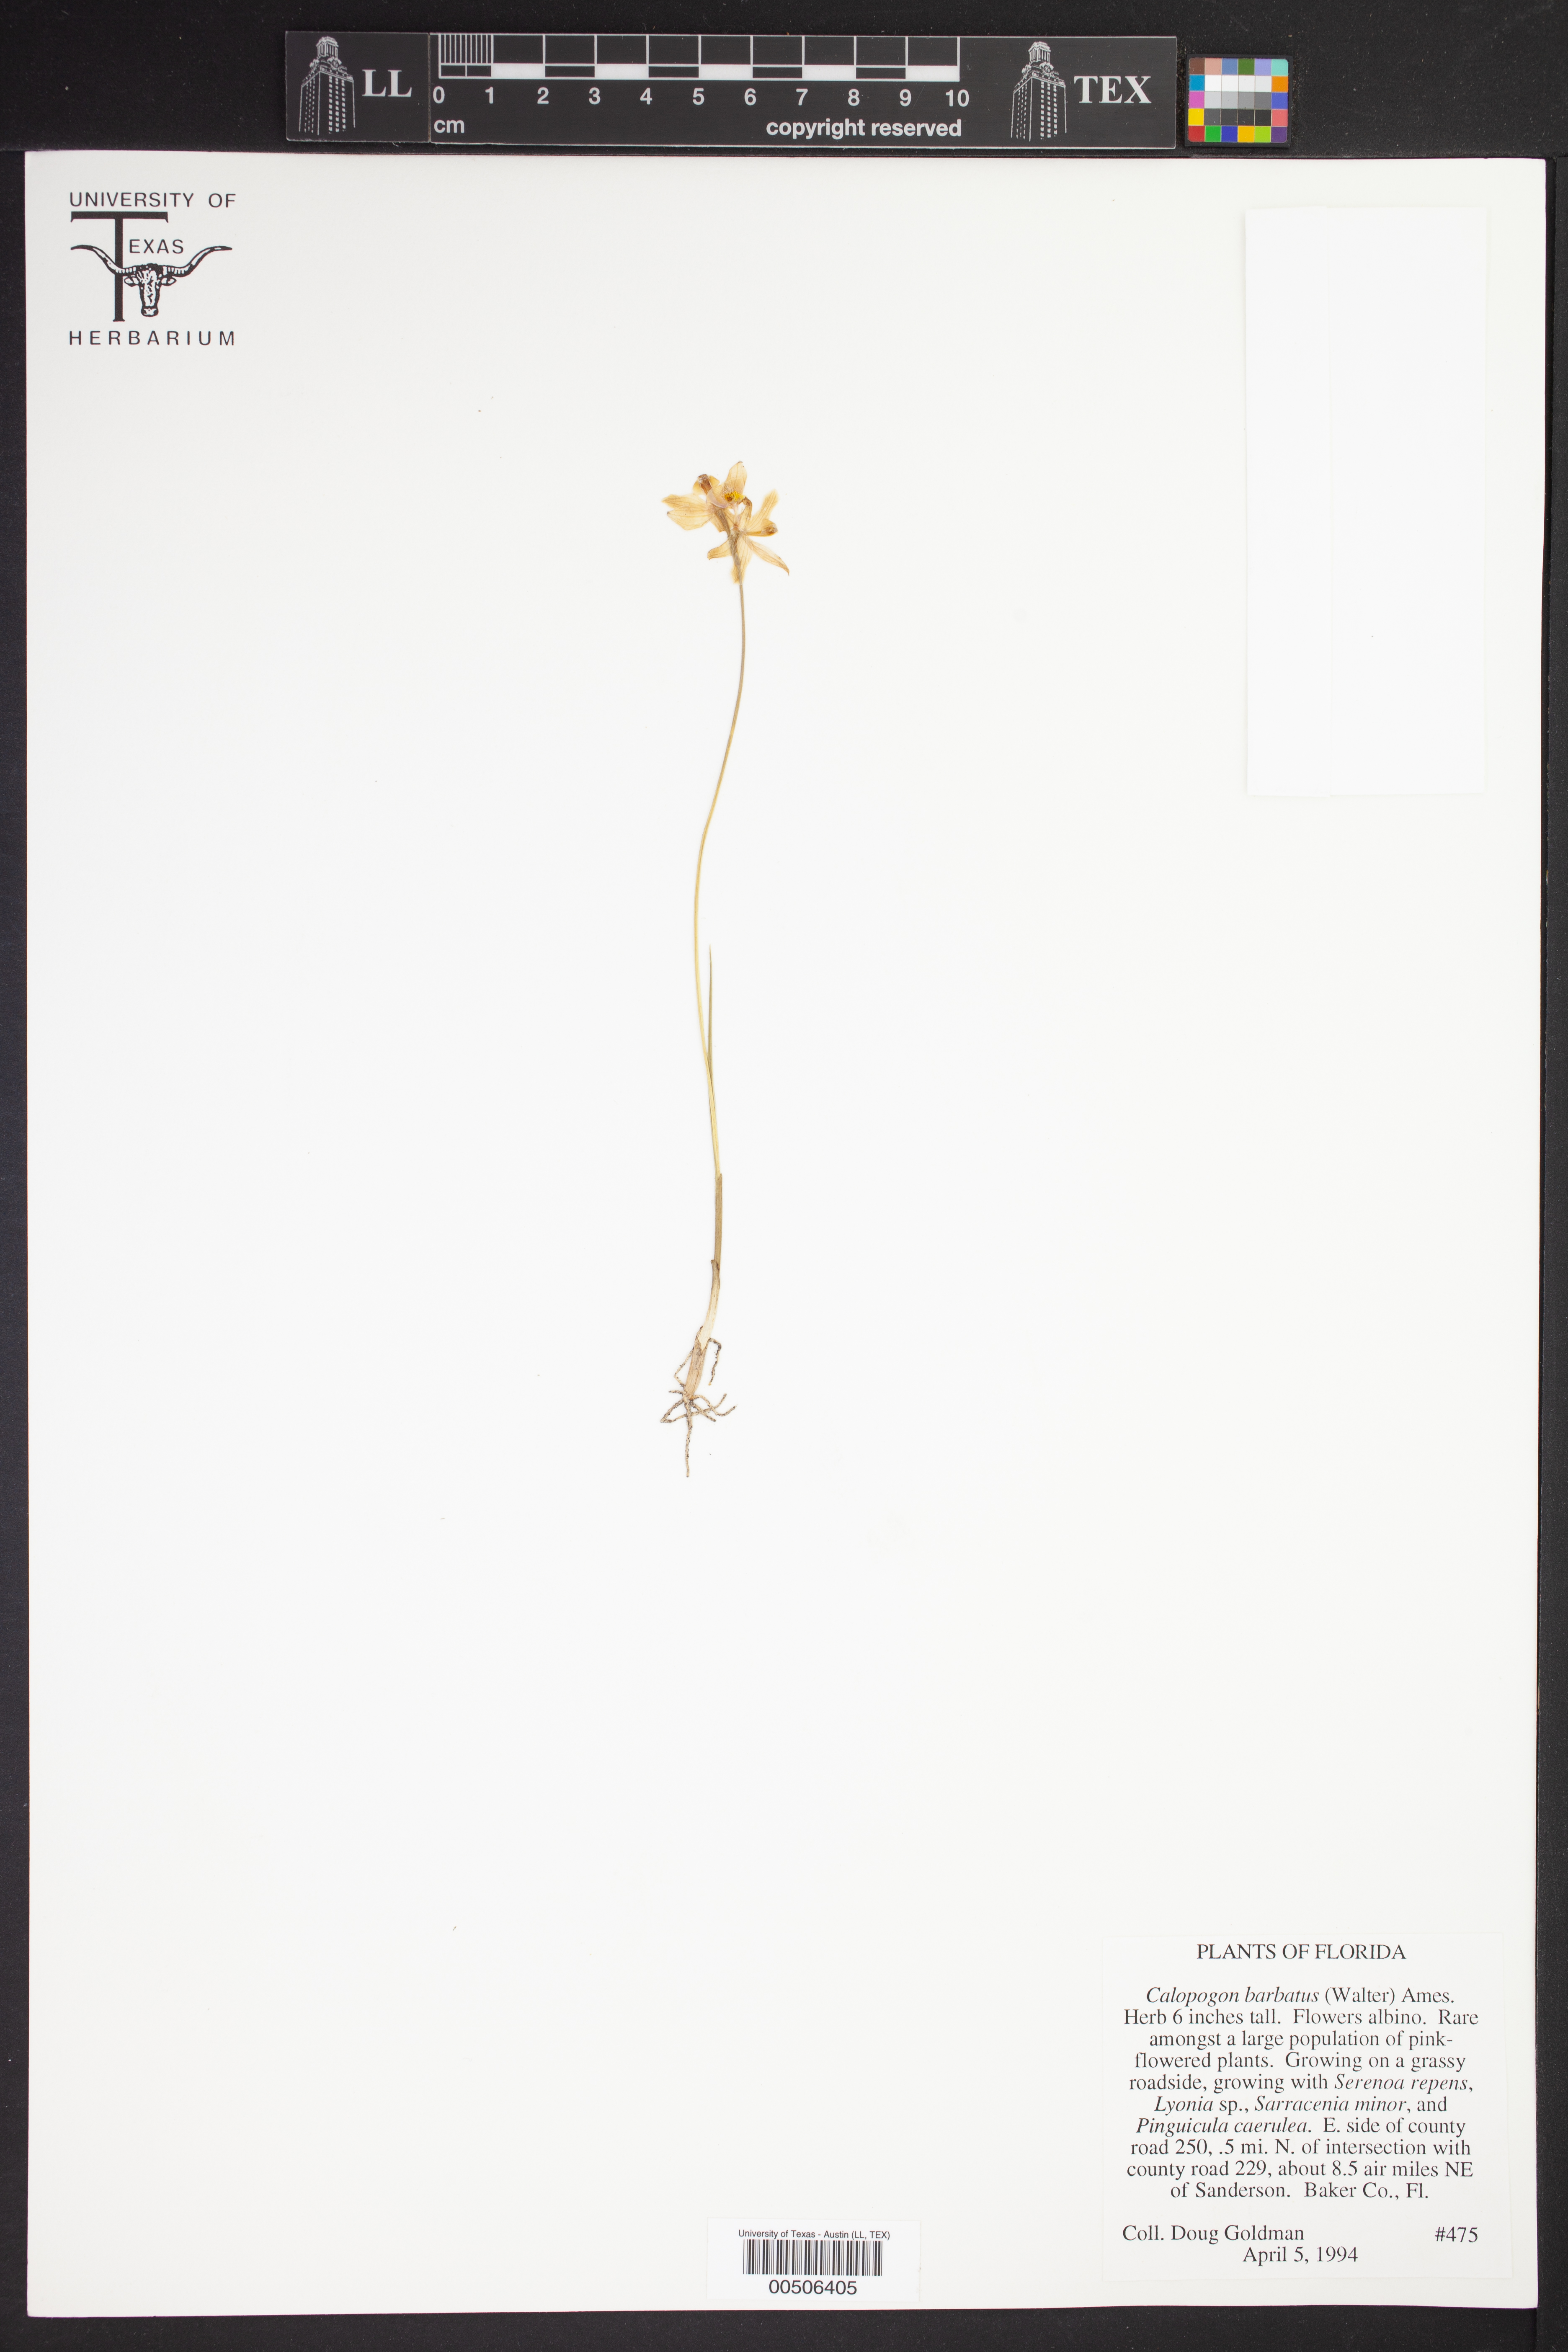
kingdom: Plantae
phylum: Tracheophyta
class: Liliopsida
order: Asparagales
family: Orchidaceae
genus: Calopogon
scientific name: Calopogon barbatus
